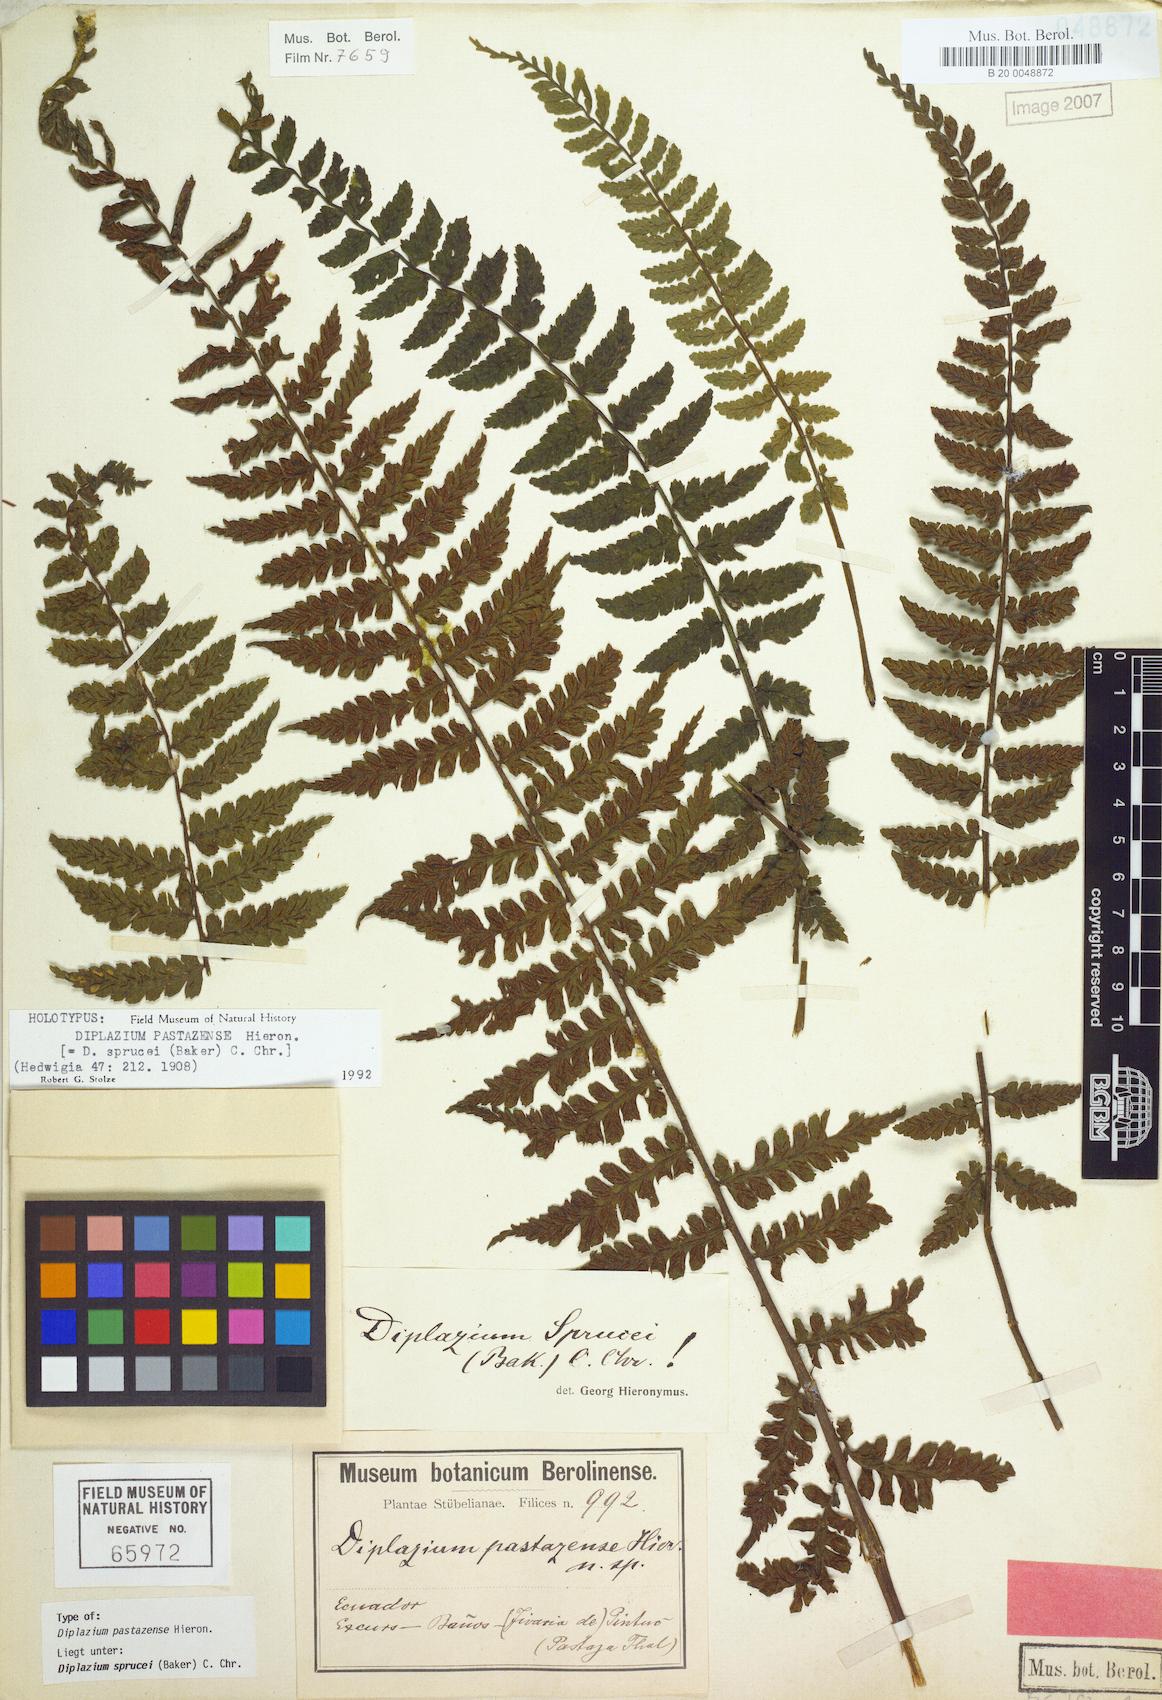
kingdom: Plantae
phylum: Tracheophyta
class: Polypodiopsida
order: Polypodiales
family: Athyriaceae
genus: Diplazium
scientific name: Diplazium sprucei
